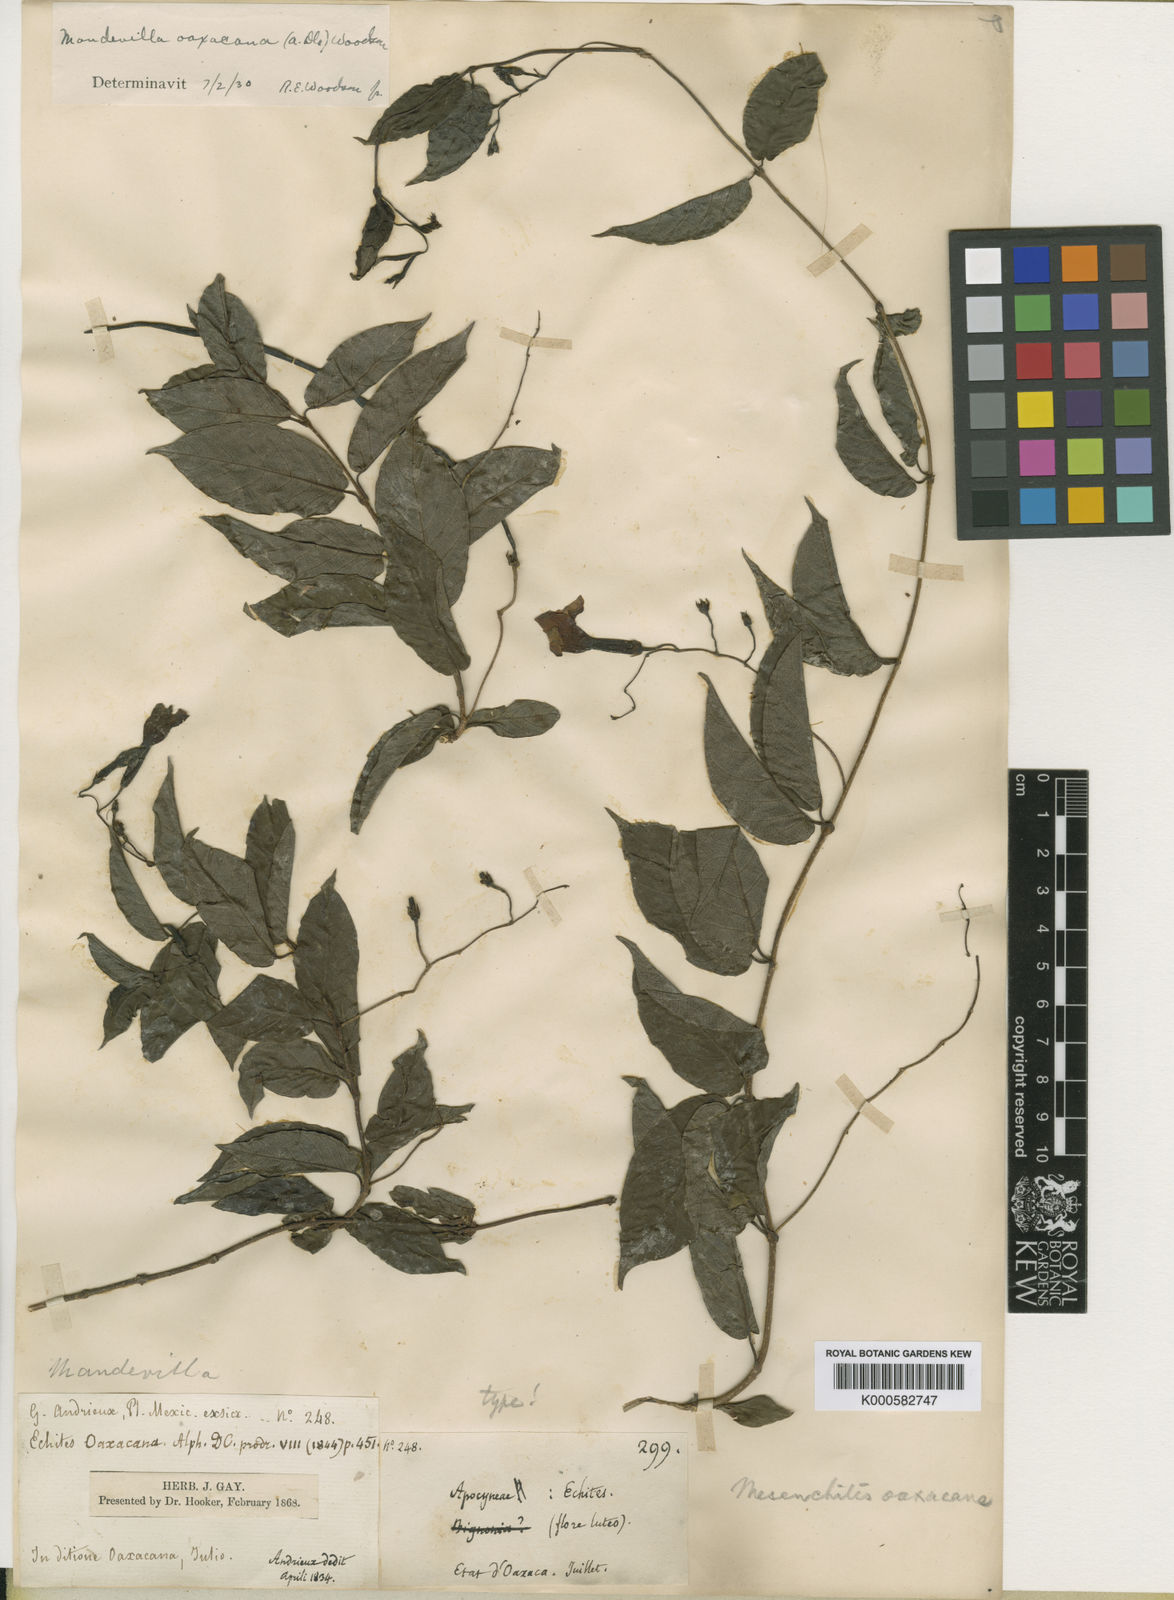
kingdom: Plantae
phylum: Tracheophyta
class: Magnoliopsida
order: Gentianales
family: Apocynaceae
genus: Mandevilla
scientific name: Mandevilla oaxacana
